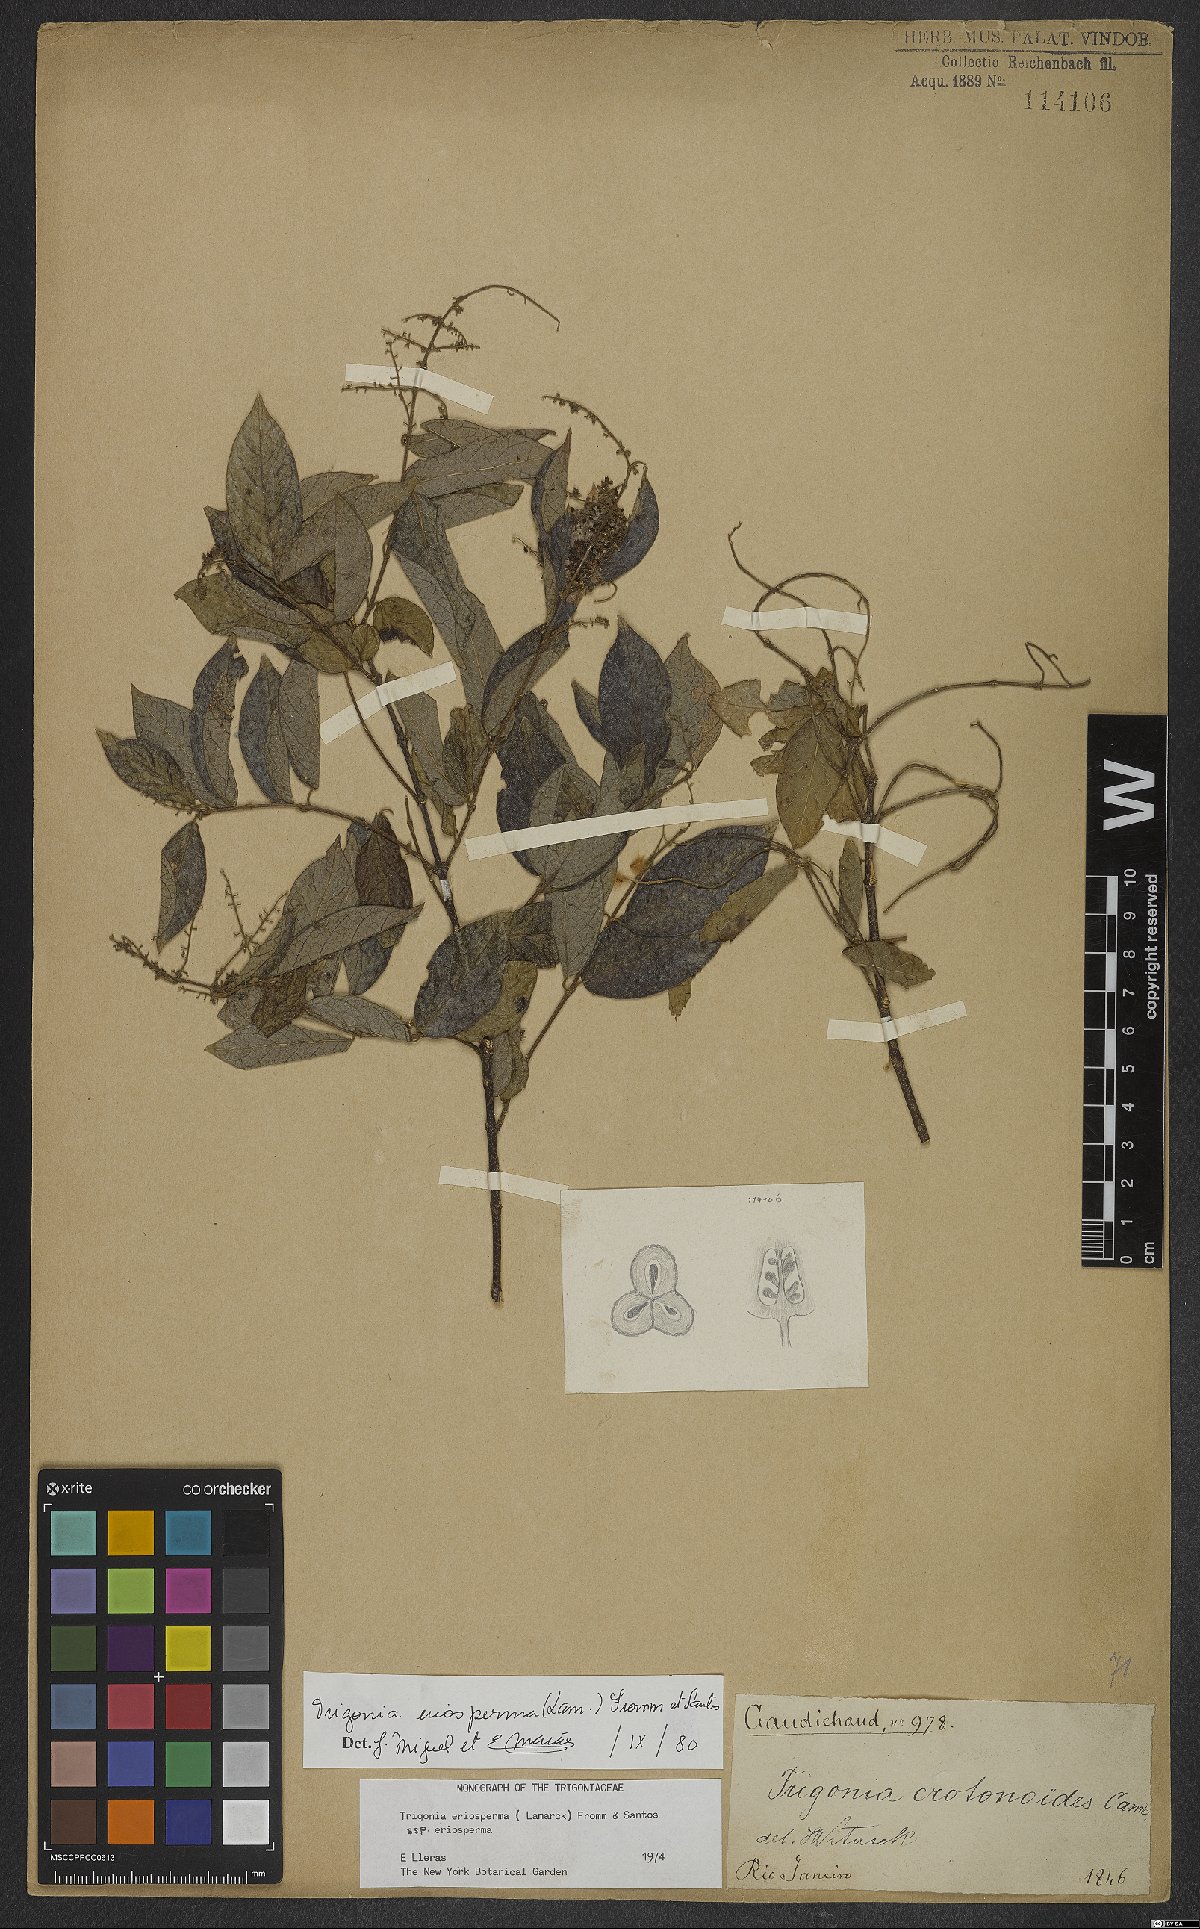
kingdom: Plantae
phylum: Tracheophyta
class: Magnoliopsida
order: Malpighiales
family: Trigoniaceae
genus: Trigonia
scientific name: Trigonia eriosperma
